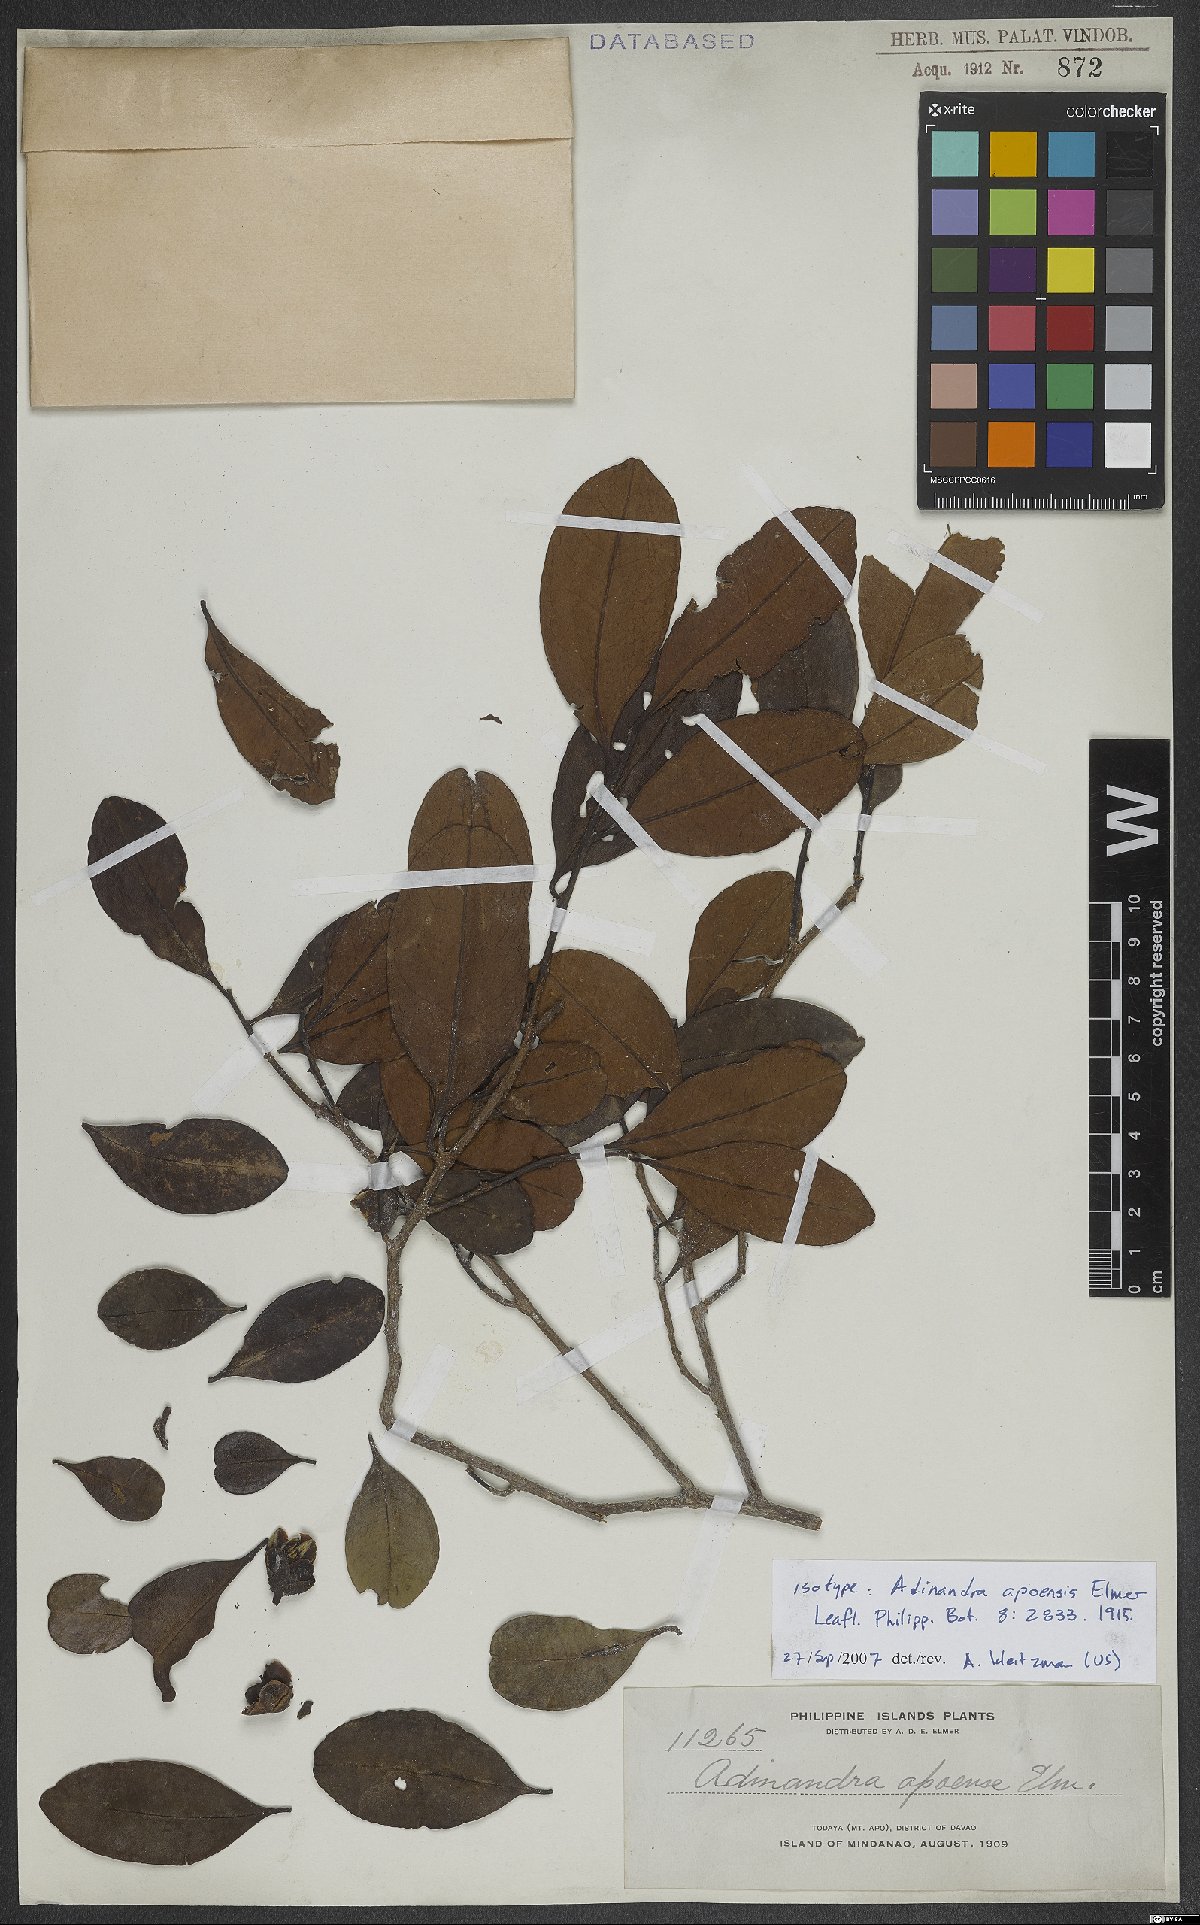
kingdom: Plantae
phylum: Tracheophyta
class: Magnoliopsida
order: Ericales
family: Pentaphylacaceae
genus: Adinandra
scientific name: Adinandra apoensis
